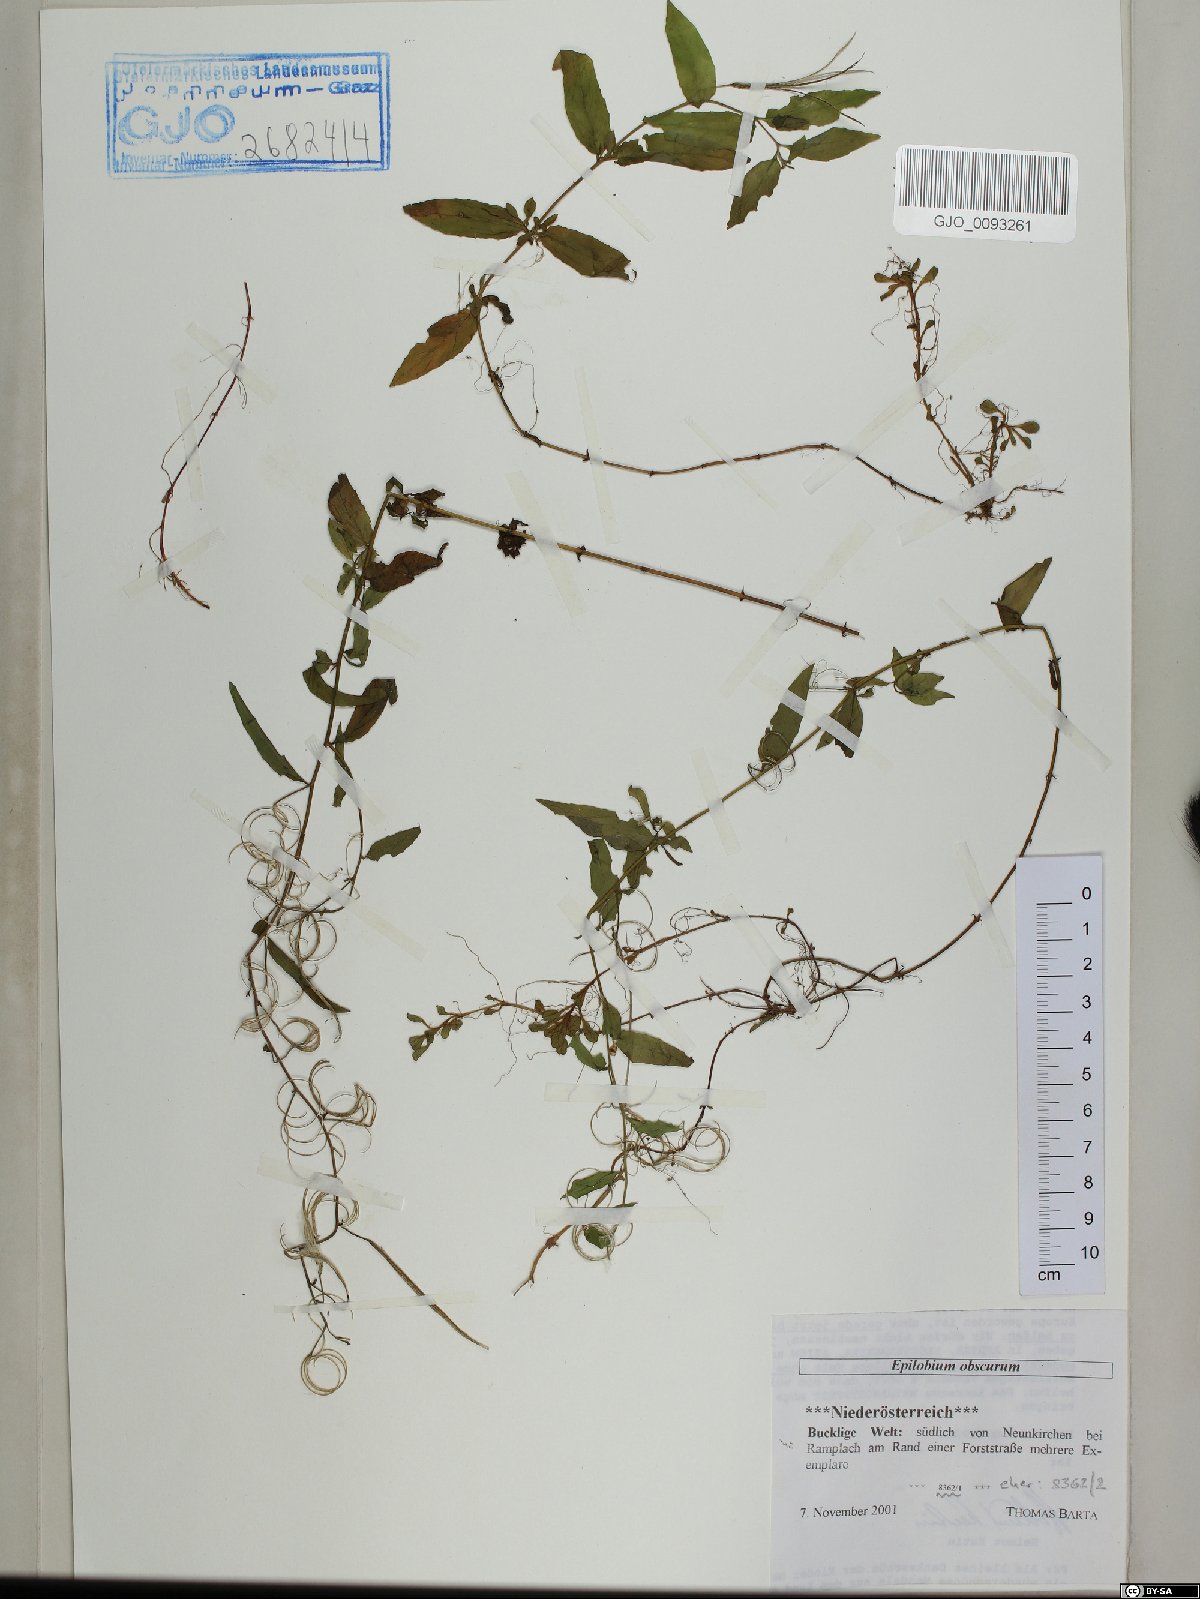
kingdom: Plantae
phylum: Tracheophyta
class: Magnoliopsida
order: Myrtales
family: Onagraceae
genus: Epilobium
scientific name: Epilobium obscurum
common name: Short-fruited willowherb
